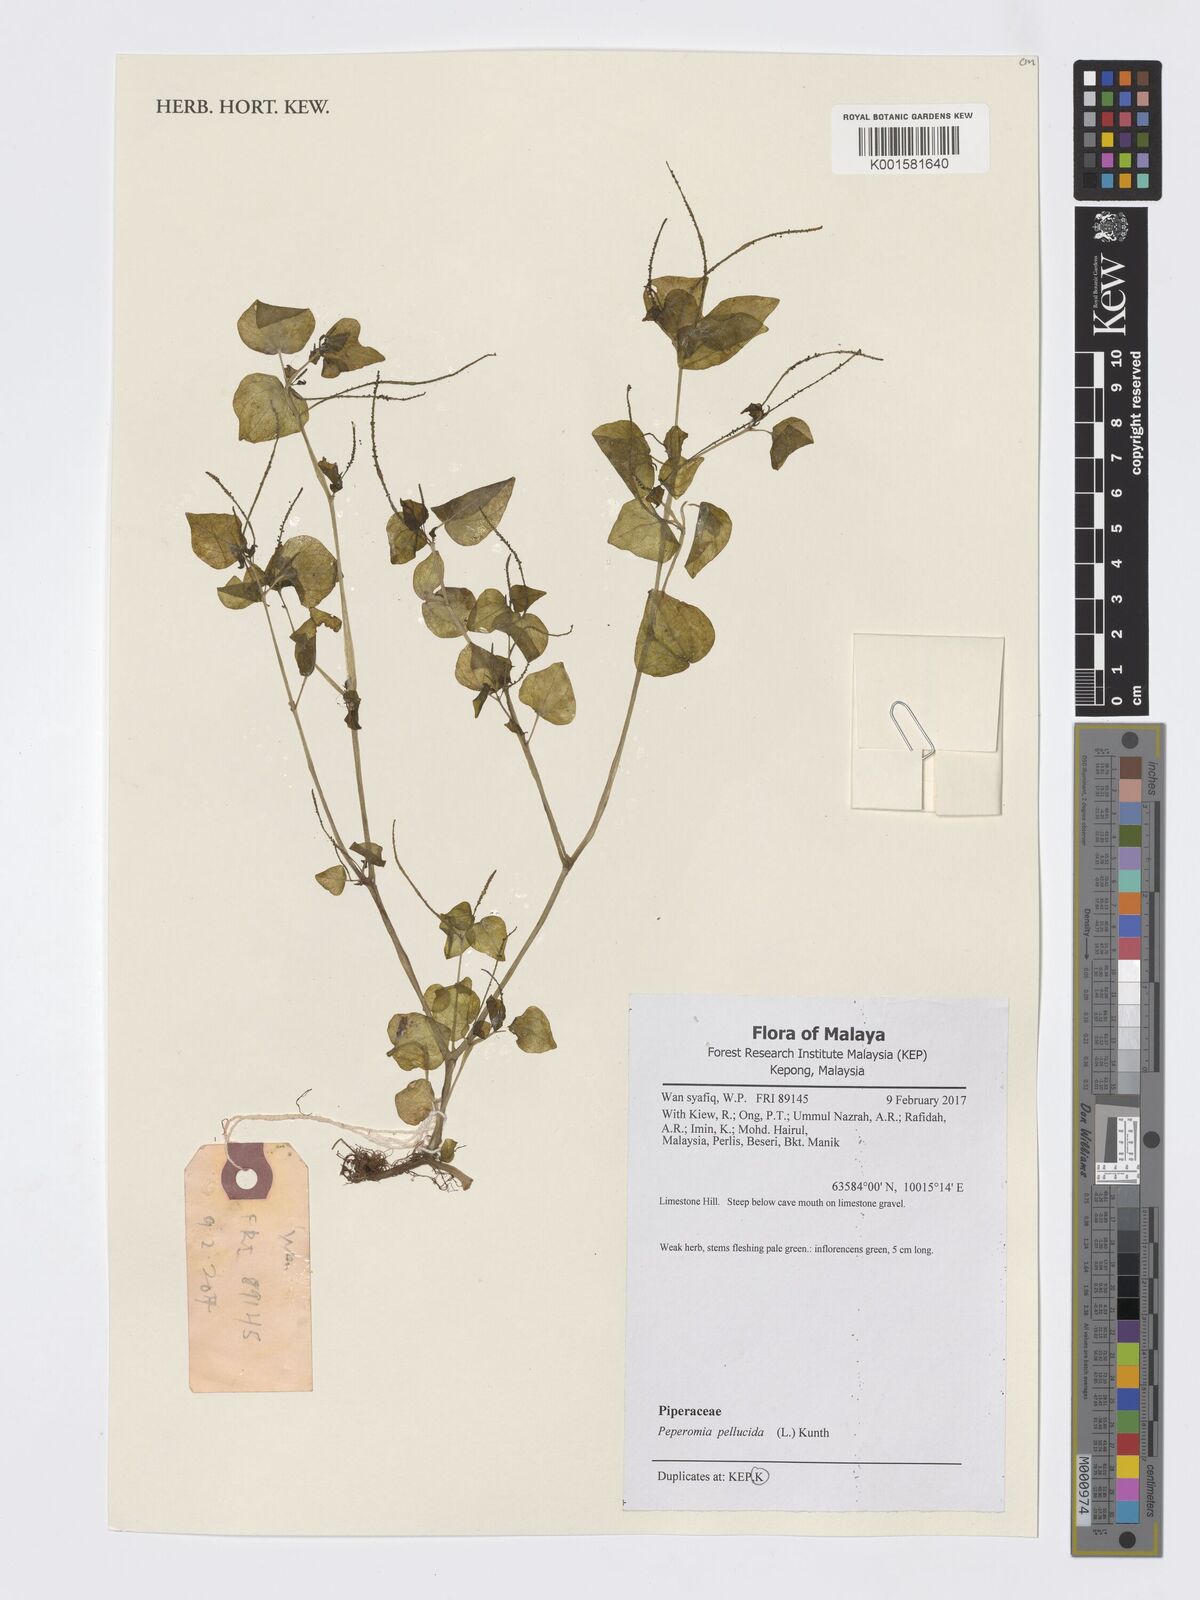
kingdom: Plantae
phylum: Tracheophyta
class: Magnoliopsida
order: Piperales
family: Piperaceae
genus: Peperomia
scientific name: Peperomia pellucida
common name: Man to man
